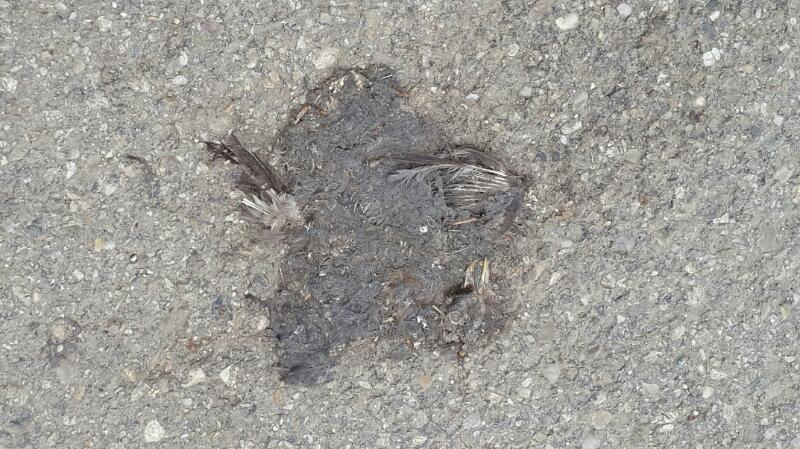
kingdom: Animalia
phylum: Chordata
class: Aves
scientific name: Aves
